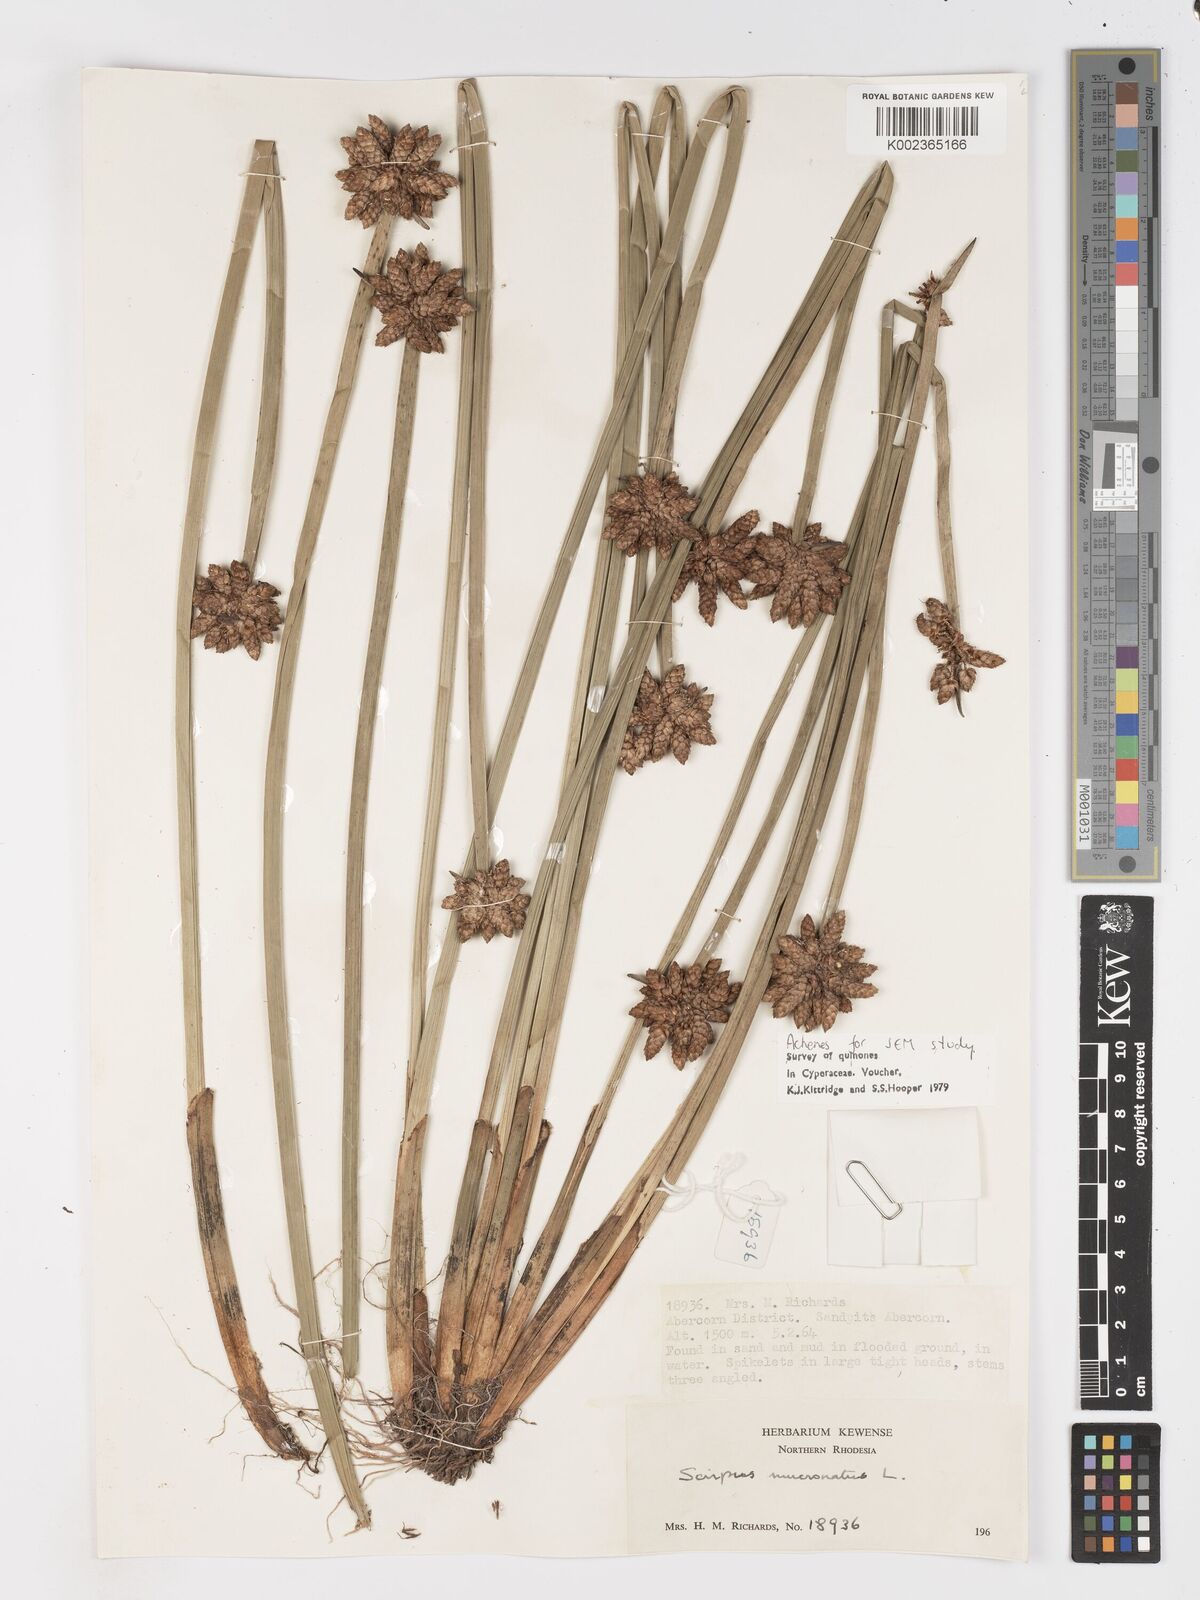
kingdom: Plantae
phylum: Tracheophyta
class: Liliopsida
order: Poales
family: Cyperaceae
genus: Schoenoplectiella
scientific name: Schoenoplectiella mucronata
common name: Bog bulrush
